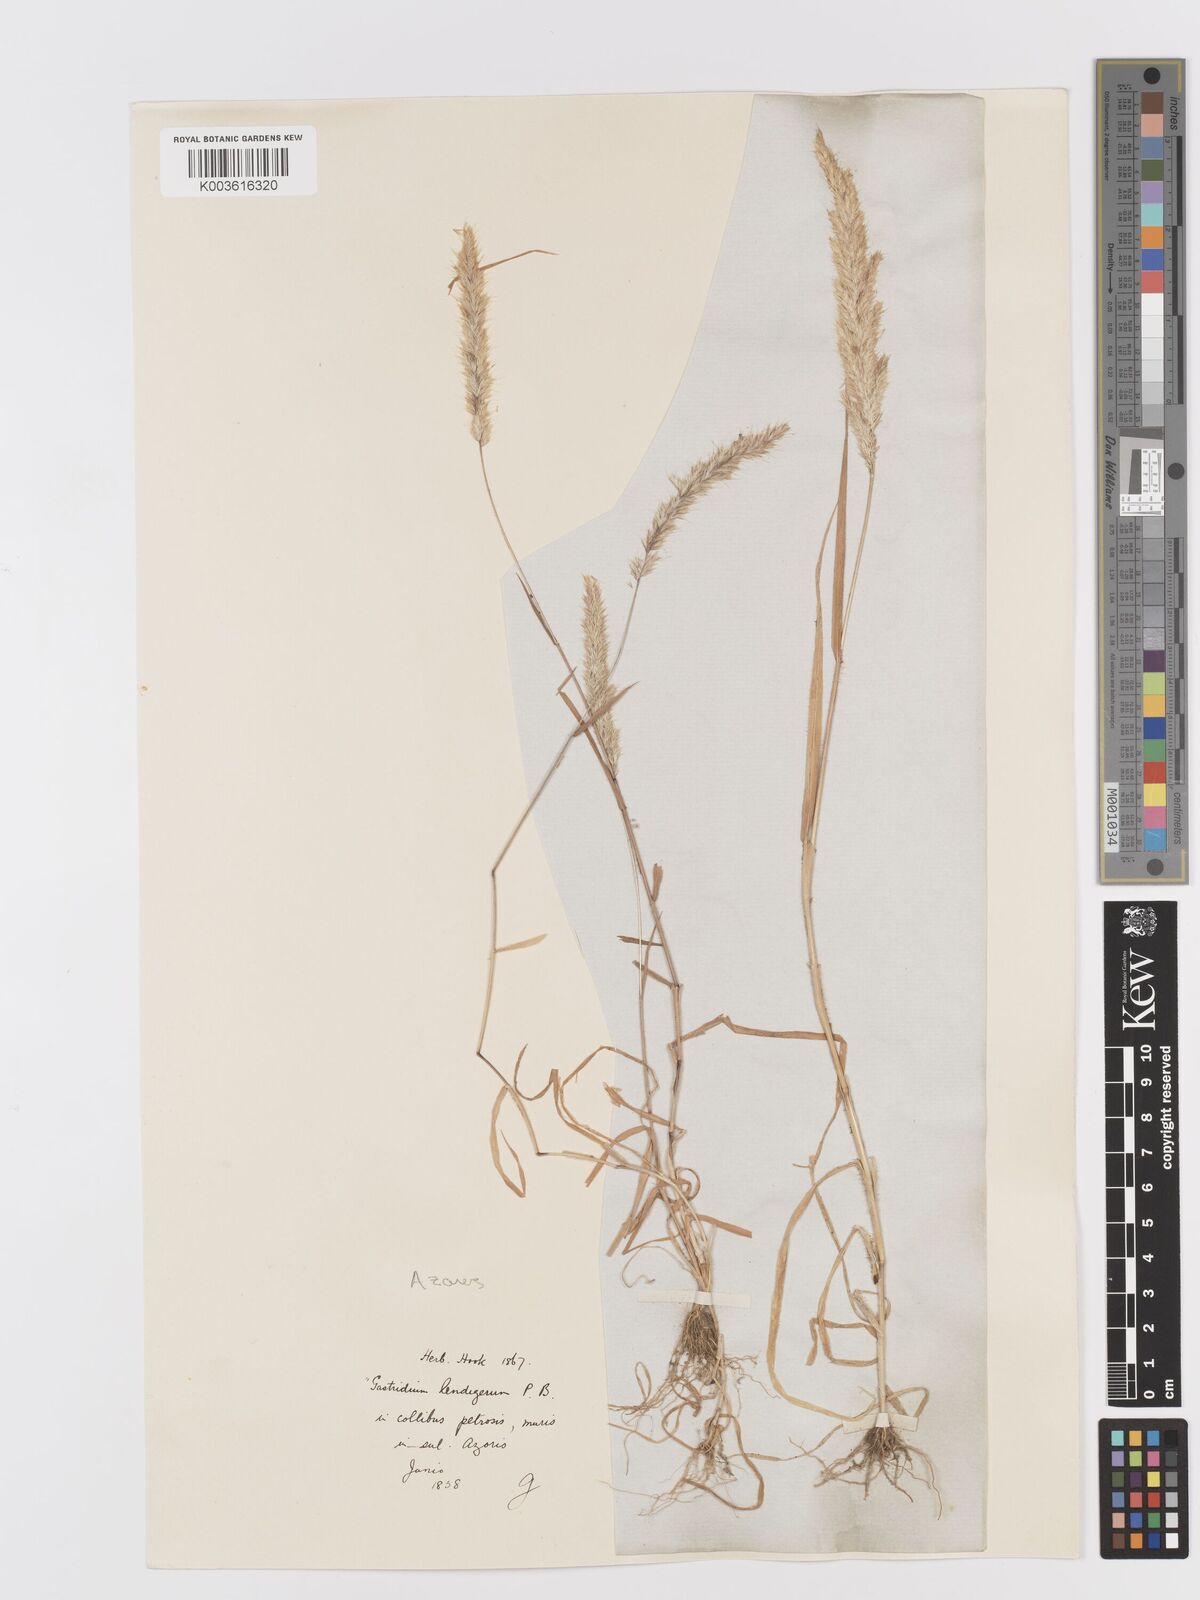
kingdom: Plantae
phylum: Tracheophyta
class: Liliopsida
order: Poales
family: Poaceae
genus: Trisetaria
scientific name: Trisetaria panicea
